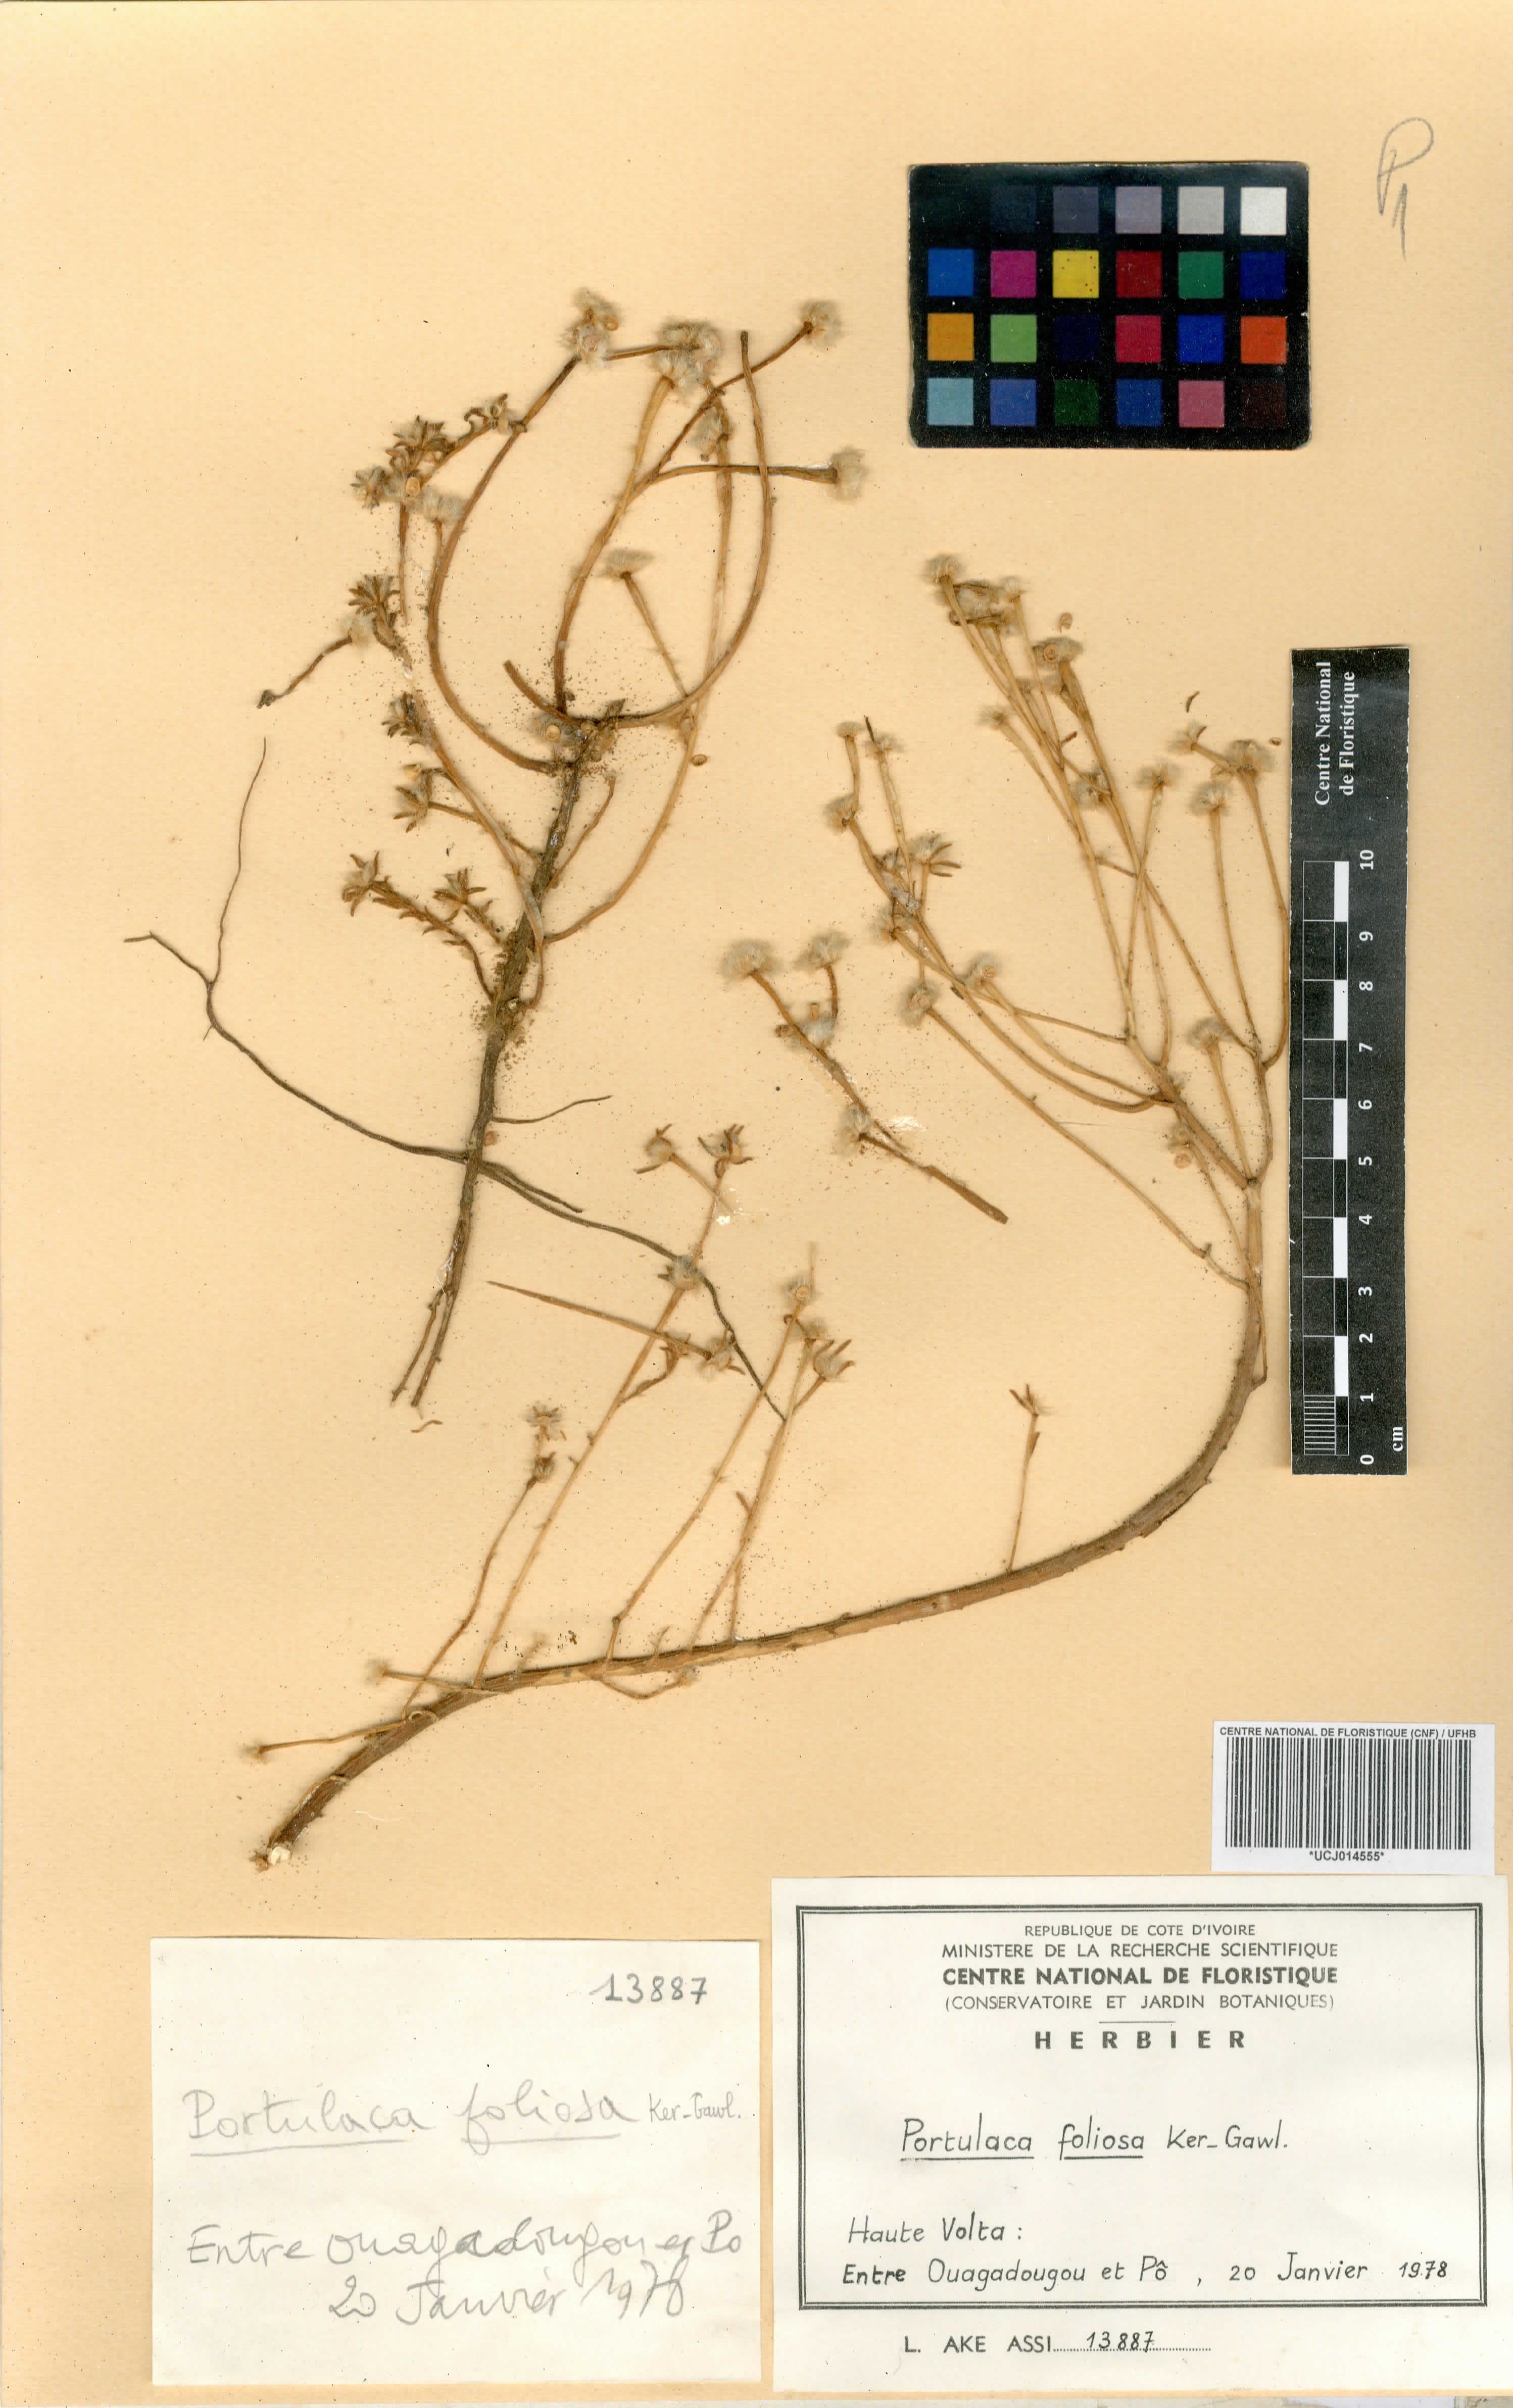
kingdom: Plantae
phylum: Tracheophyta
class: Magnoliopsida
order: Caryophyllales
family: Portulacaceae
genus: Portulaca
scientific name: Portulaca foliosa
